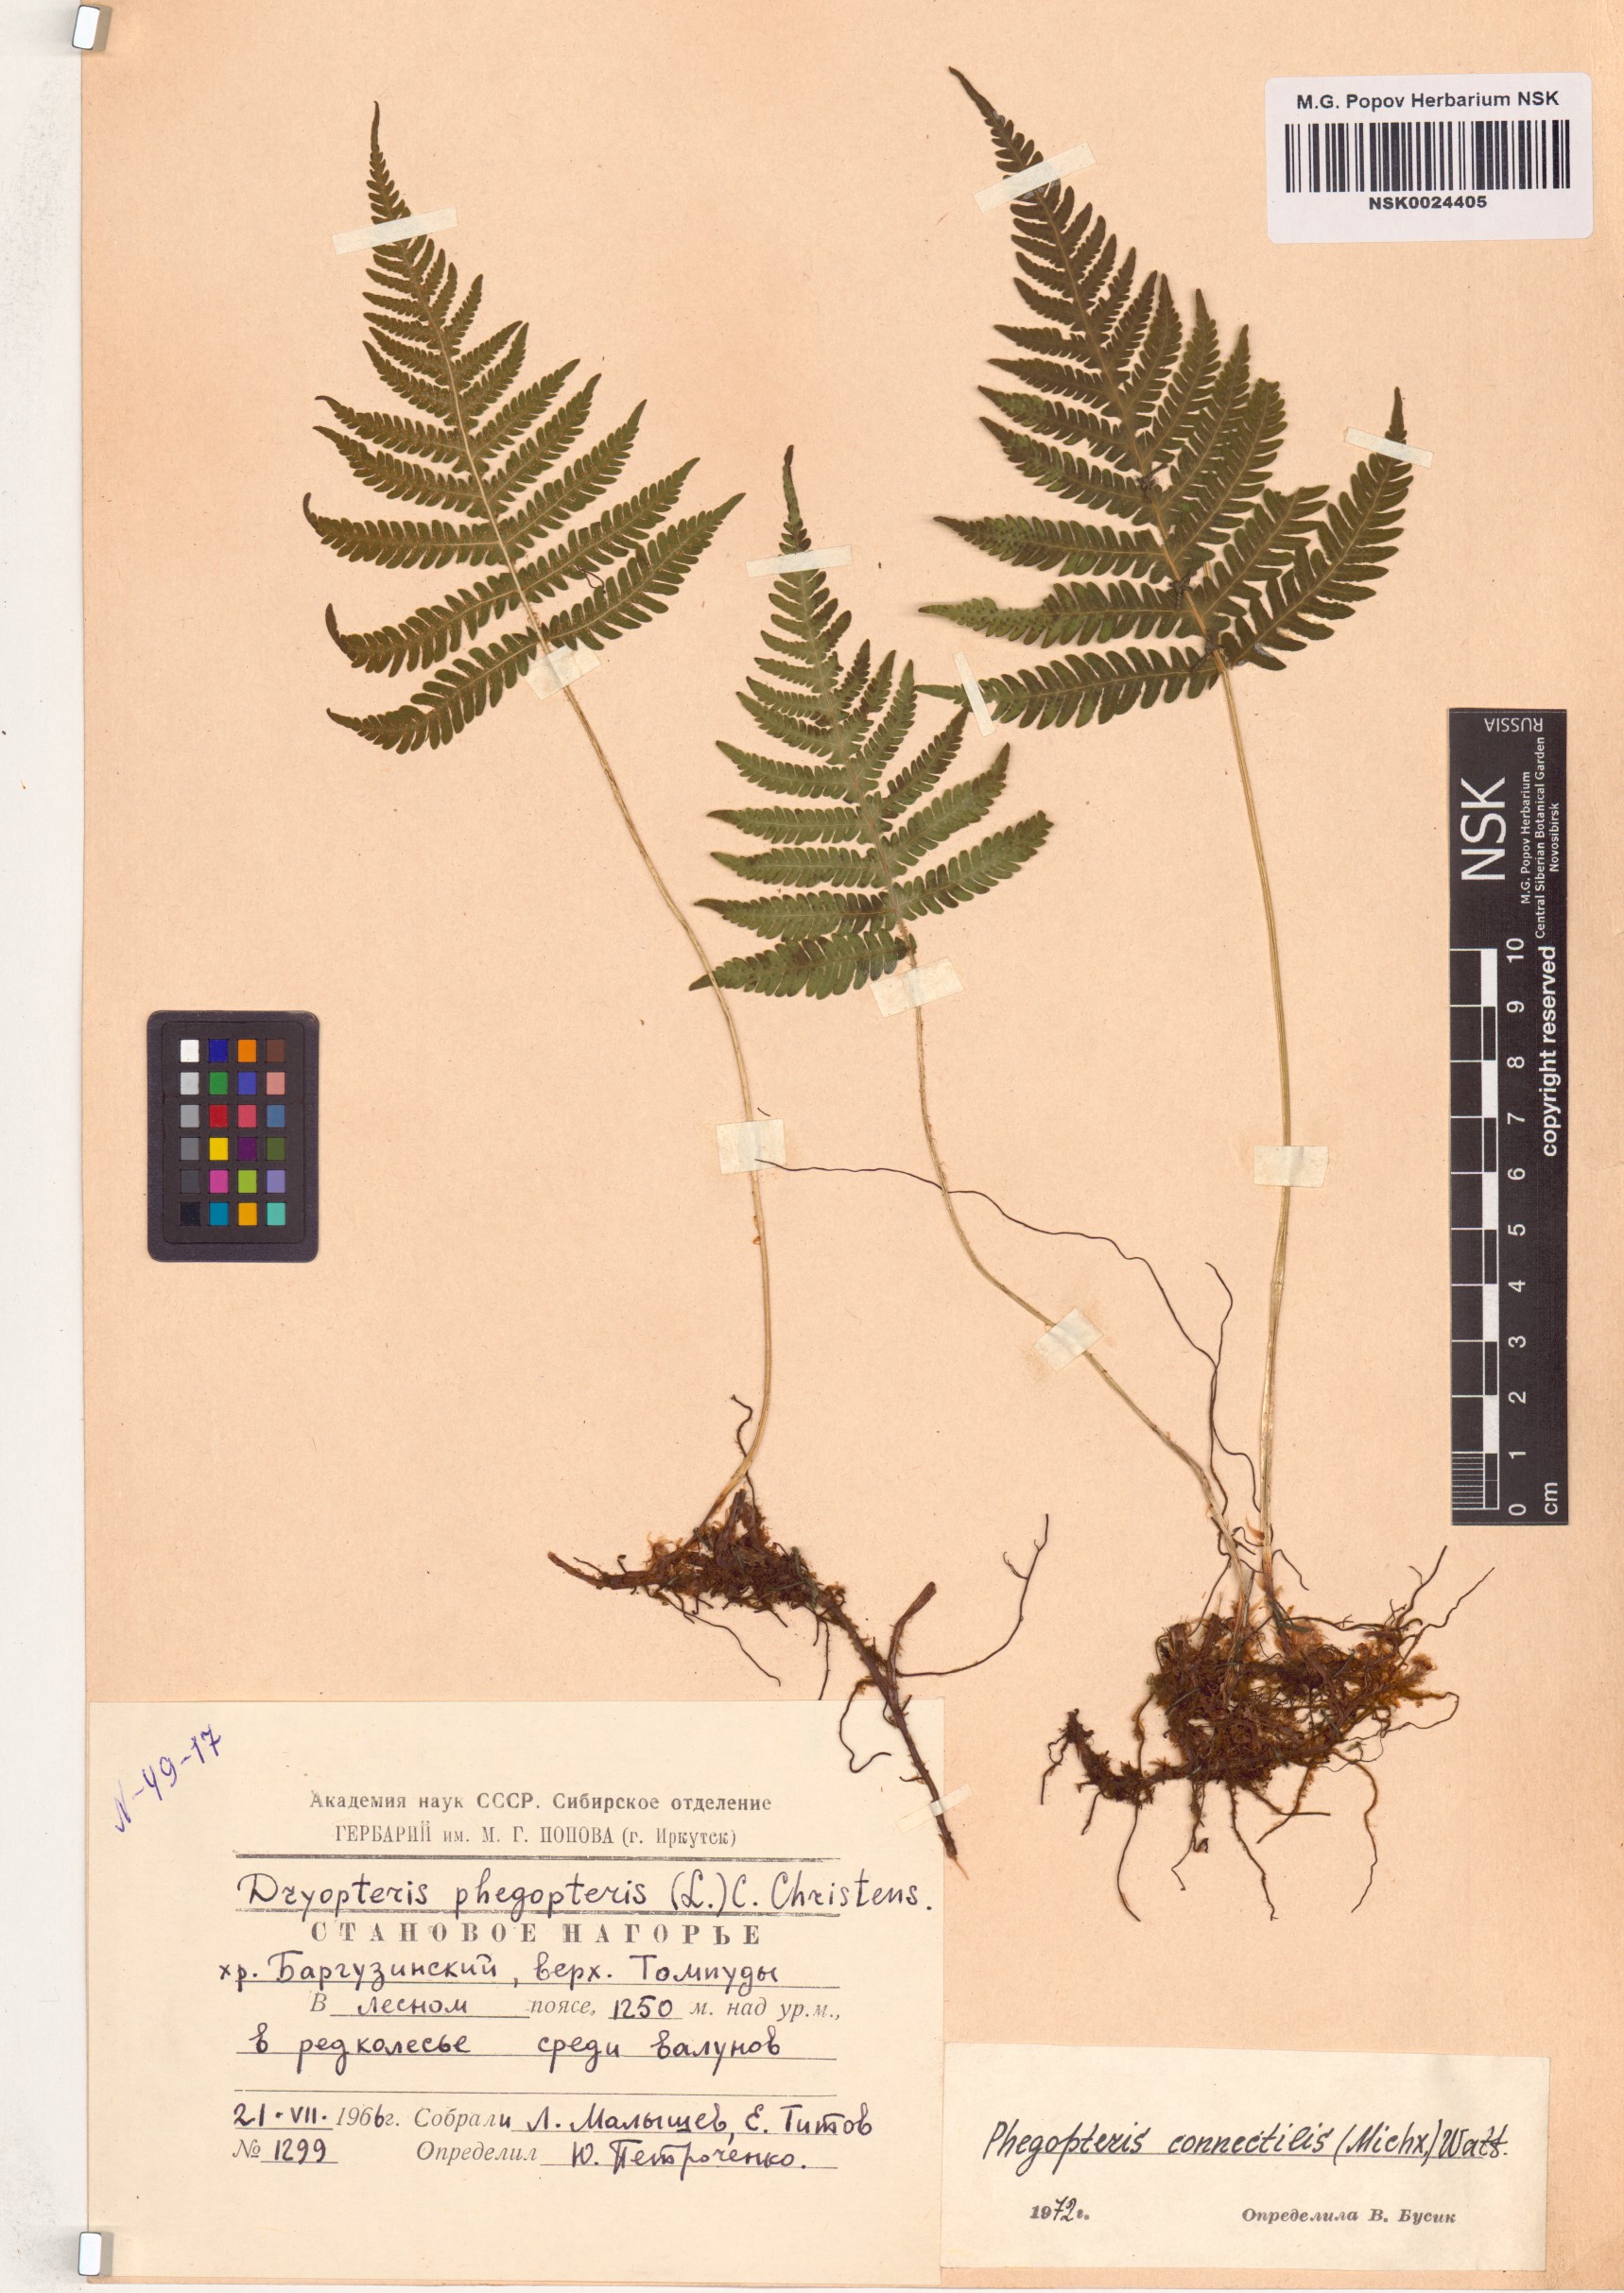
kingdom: Plantae
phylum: Tracheophyta
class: Polypodiopsida
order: Polypodiales
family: Thelypteridaceae
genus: Phegopteris
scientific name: Phegopteris connectilis
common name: Beech fern
